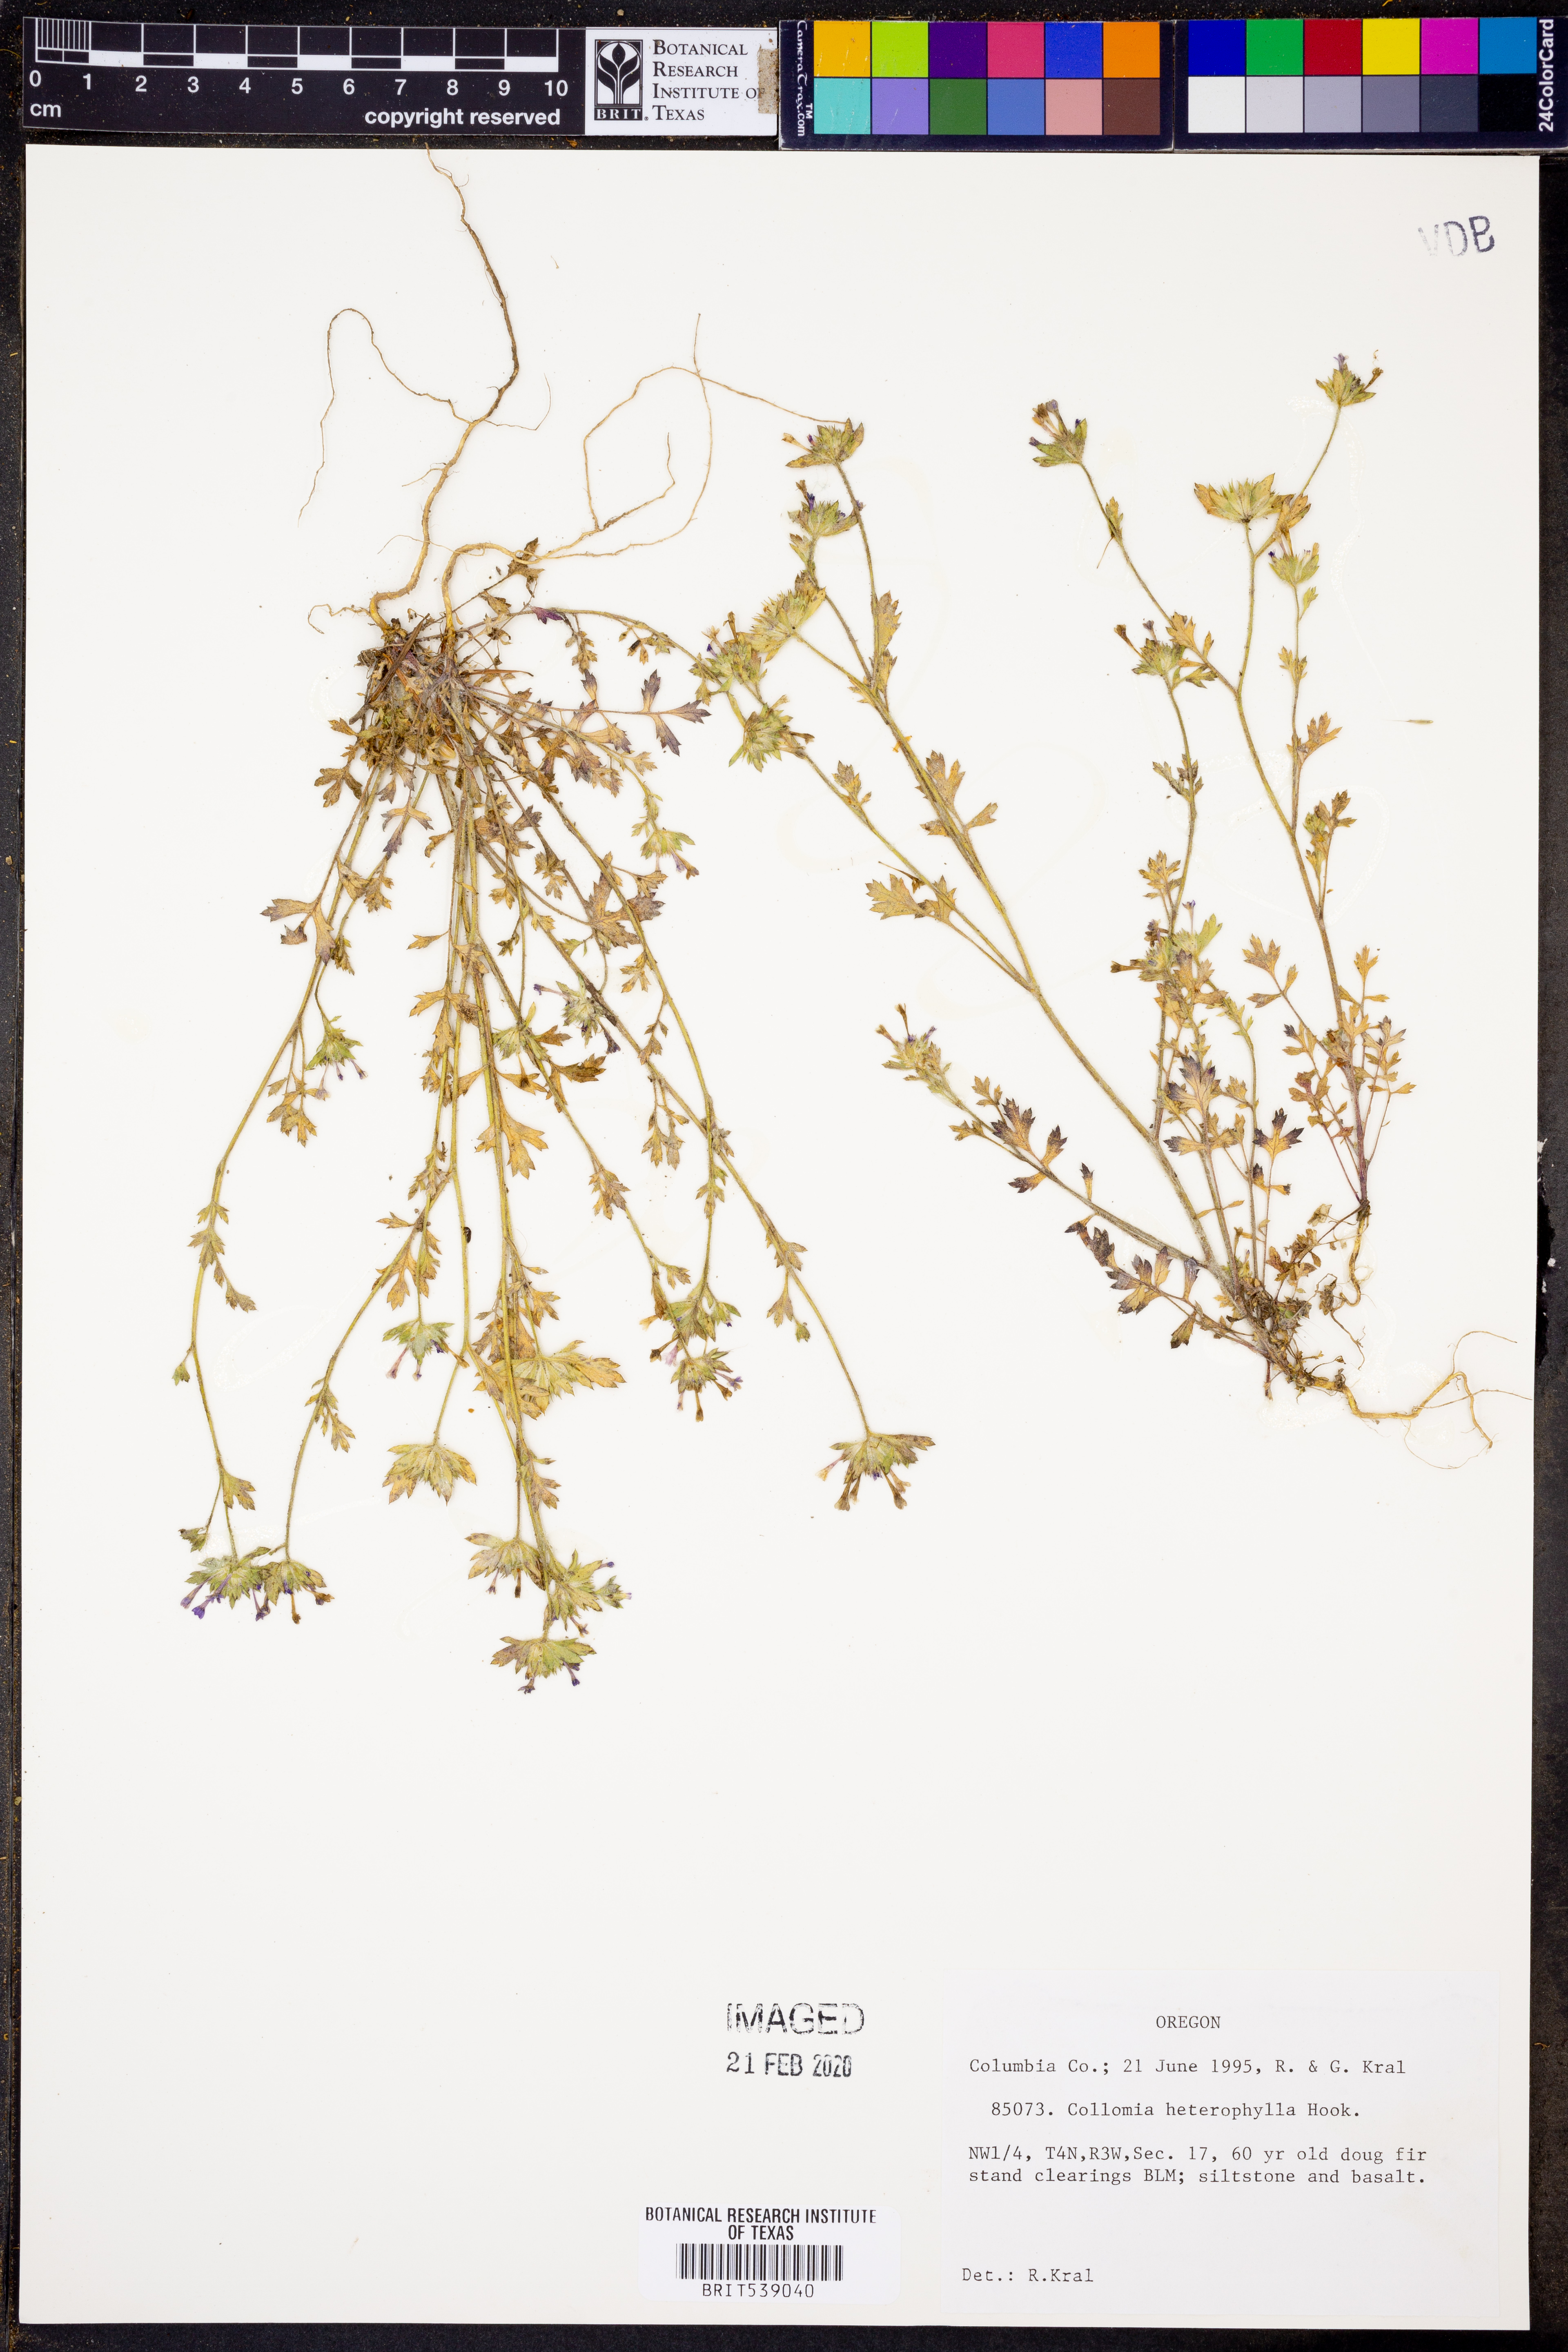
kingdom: Plantae
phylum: Tracheophyta
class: Magnoliopsida
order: Ericales
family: Polemoniaceae
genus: Collomia
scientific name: Collomia heterophylla
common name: Variable-leaved collomia
